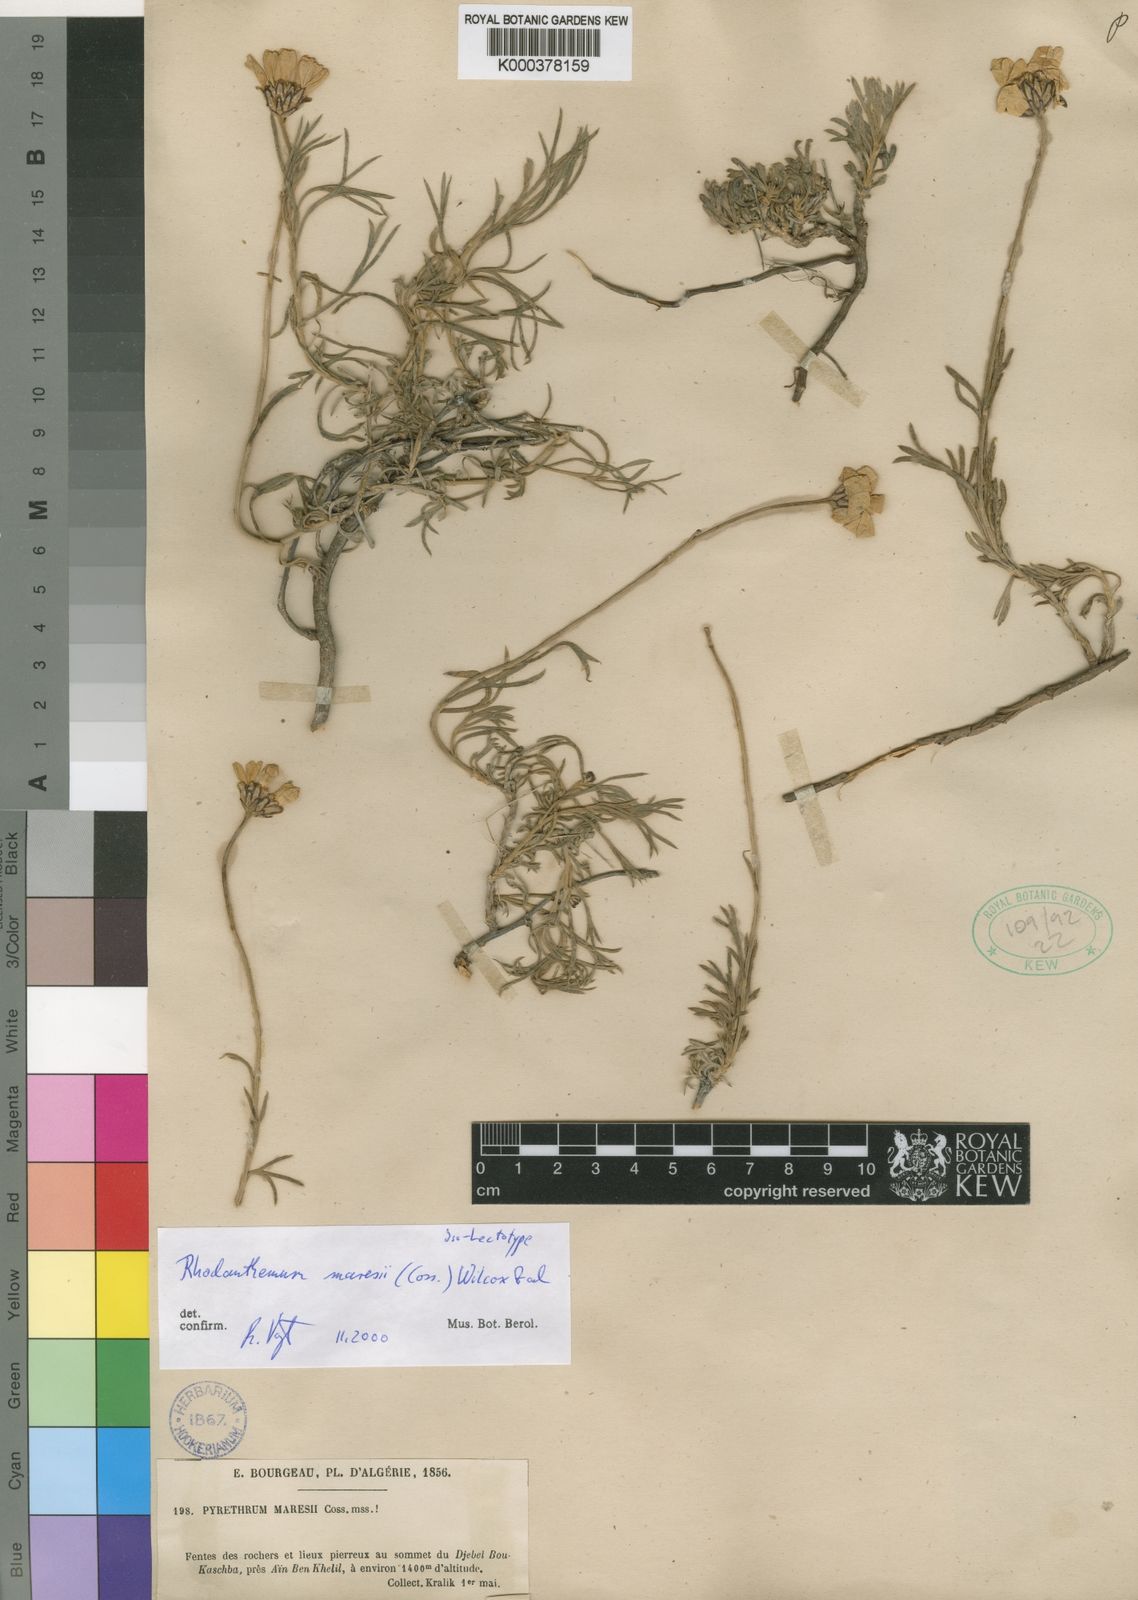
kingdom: Plantae
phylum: Tracheophyta
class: Magnoliopsida
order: Asterales
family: Asteraceae
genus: Rhodanthemum
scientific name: Rhodanthemum
